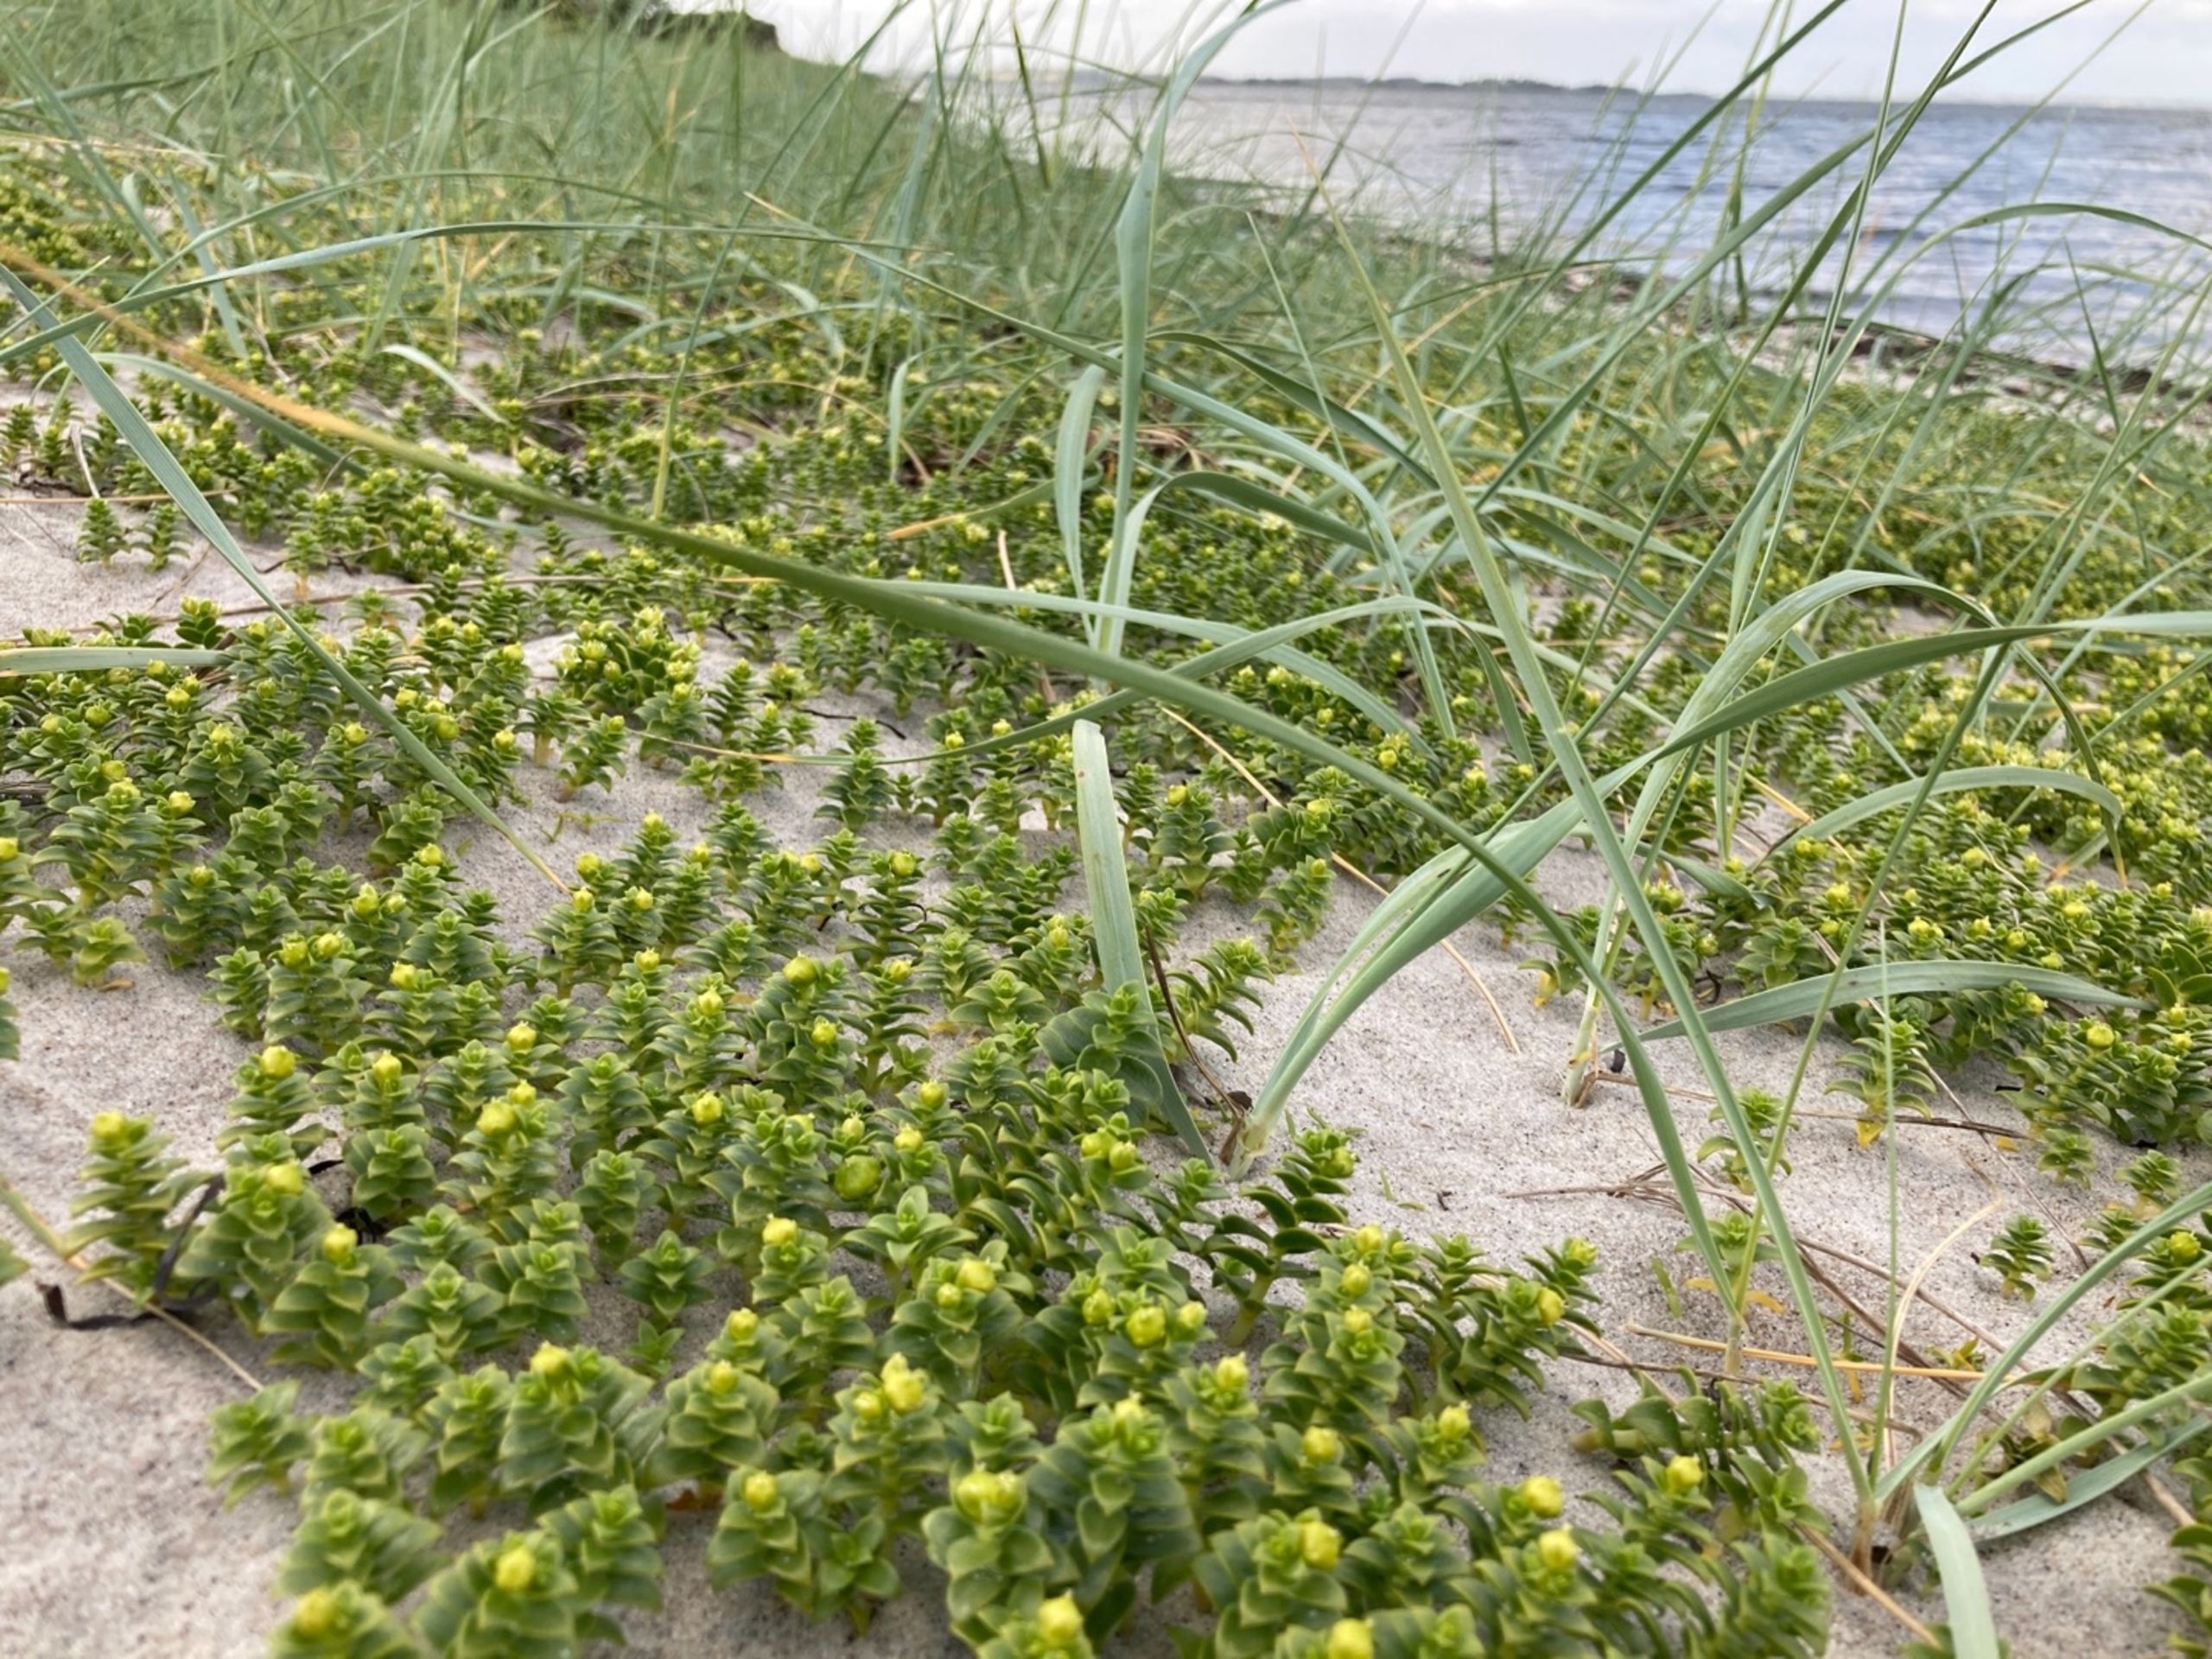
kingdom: Plantae
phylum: Tracheophyta
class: Magnoliopsida
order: Caryophyllales
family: Caryophyllaceae
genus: Honckenya
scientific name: Honckenya peploides
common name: Strandarve
